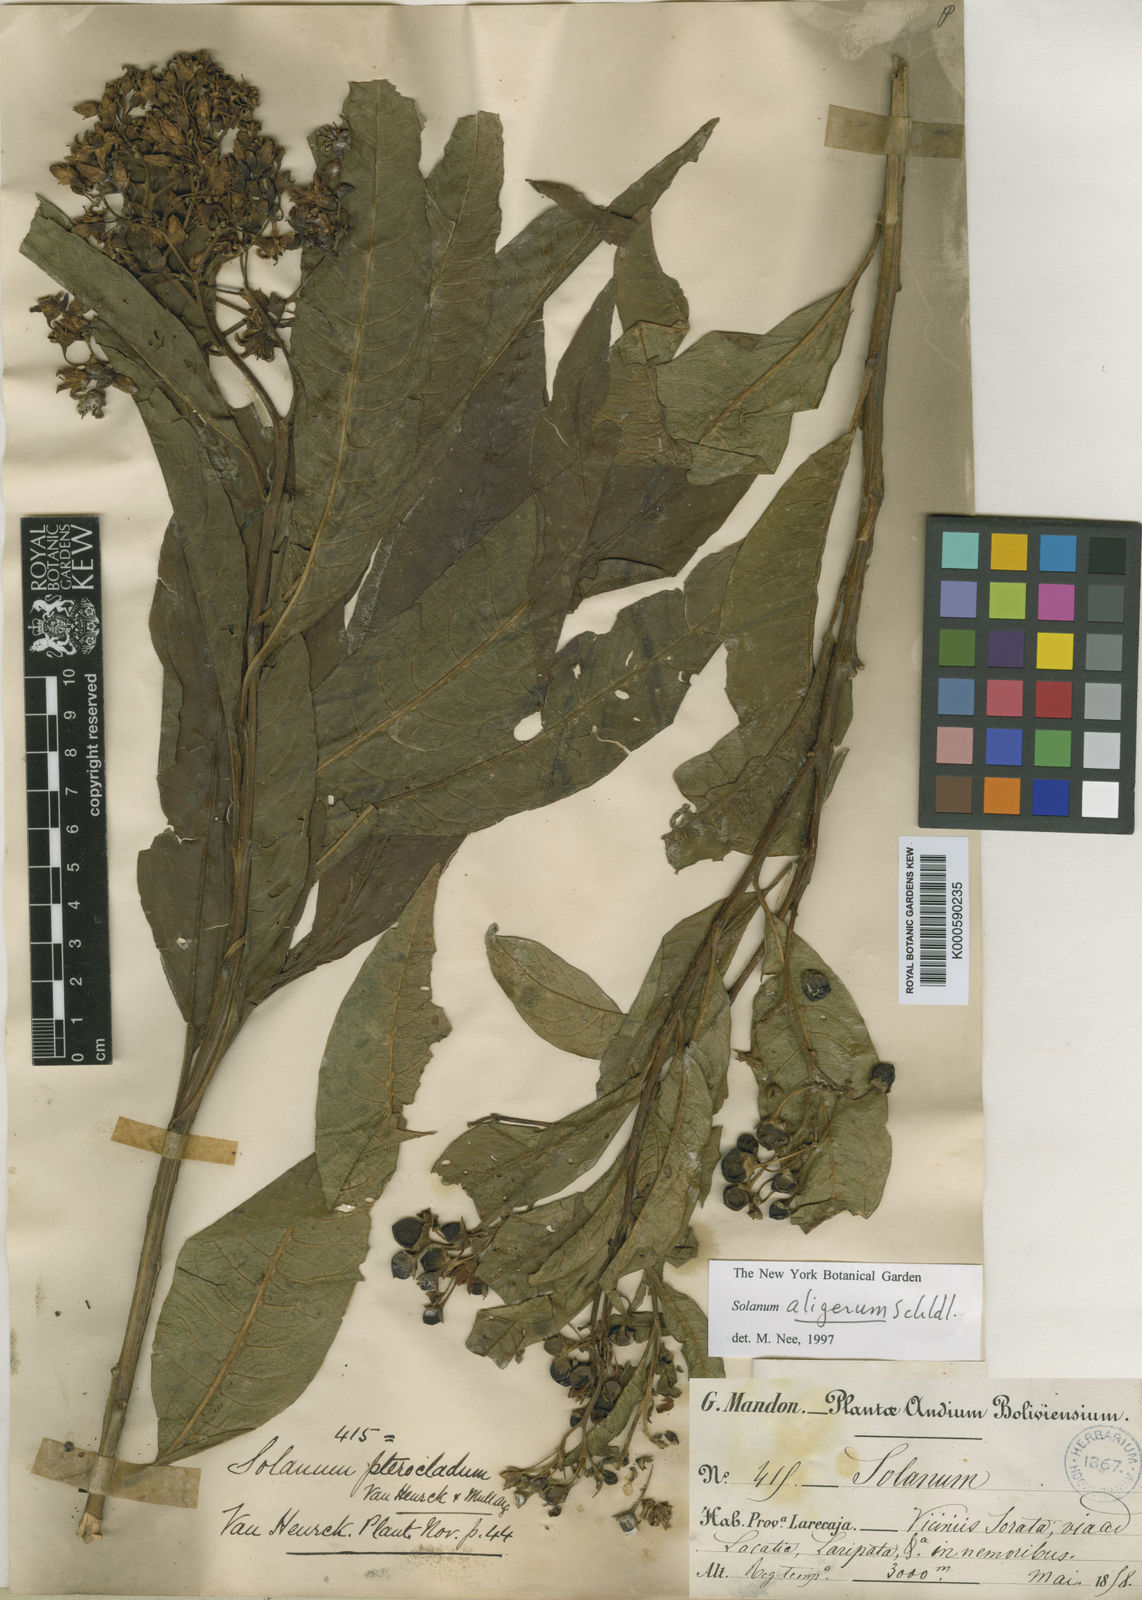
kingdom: Plantae
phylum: Tracheophyta
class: Magnoliopsida
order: Solanales
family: Solanaceae
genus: Solanum
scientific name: Solanum aligerum
